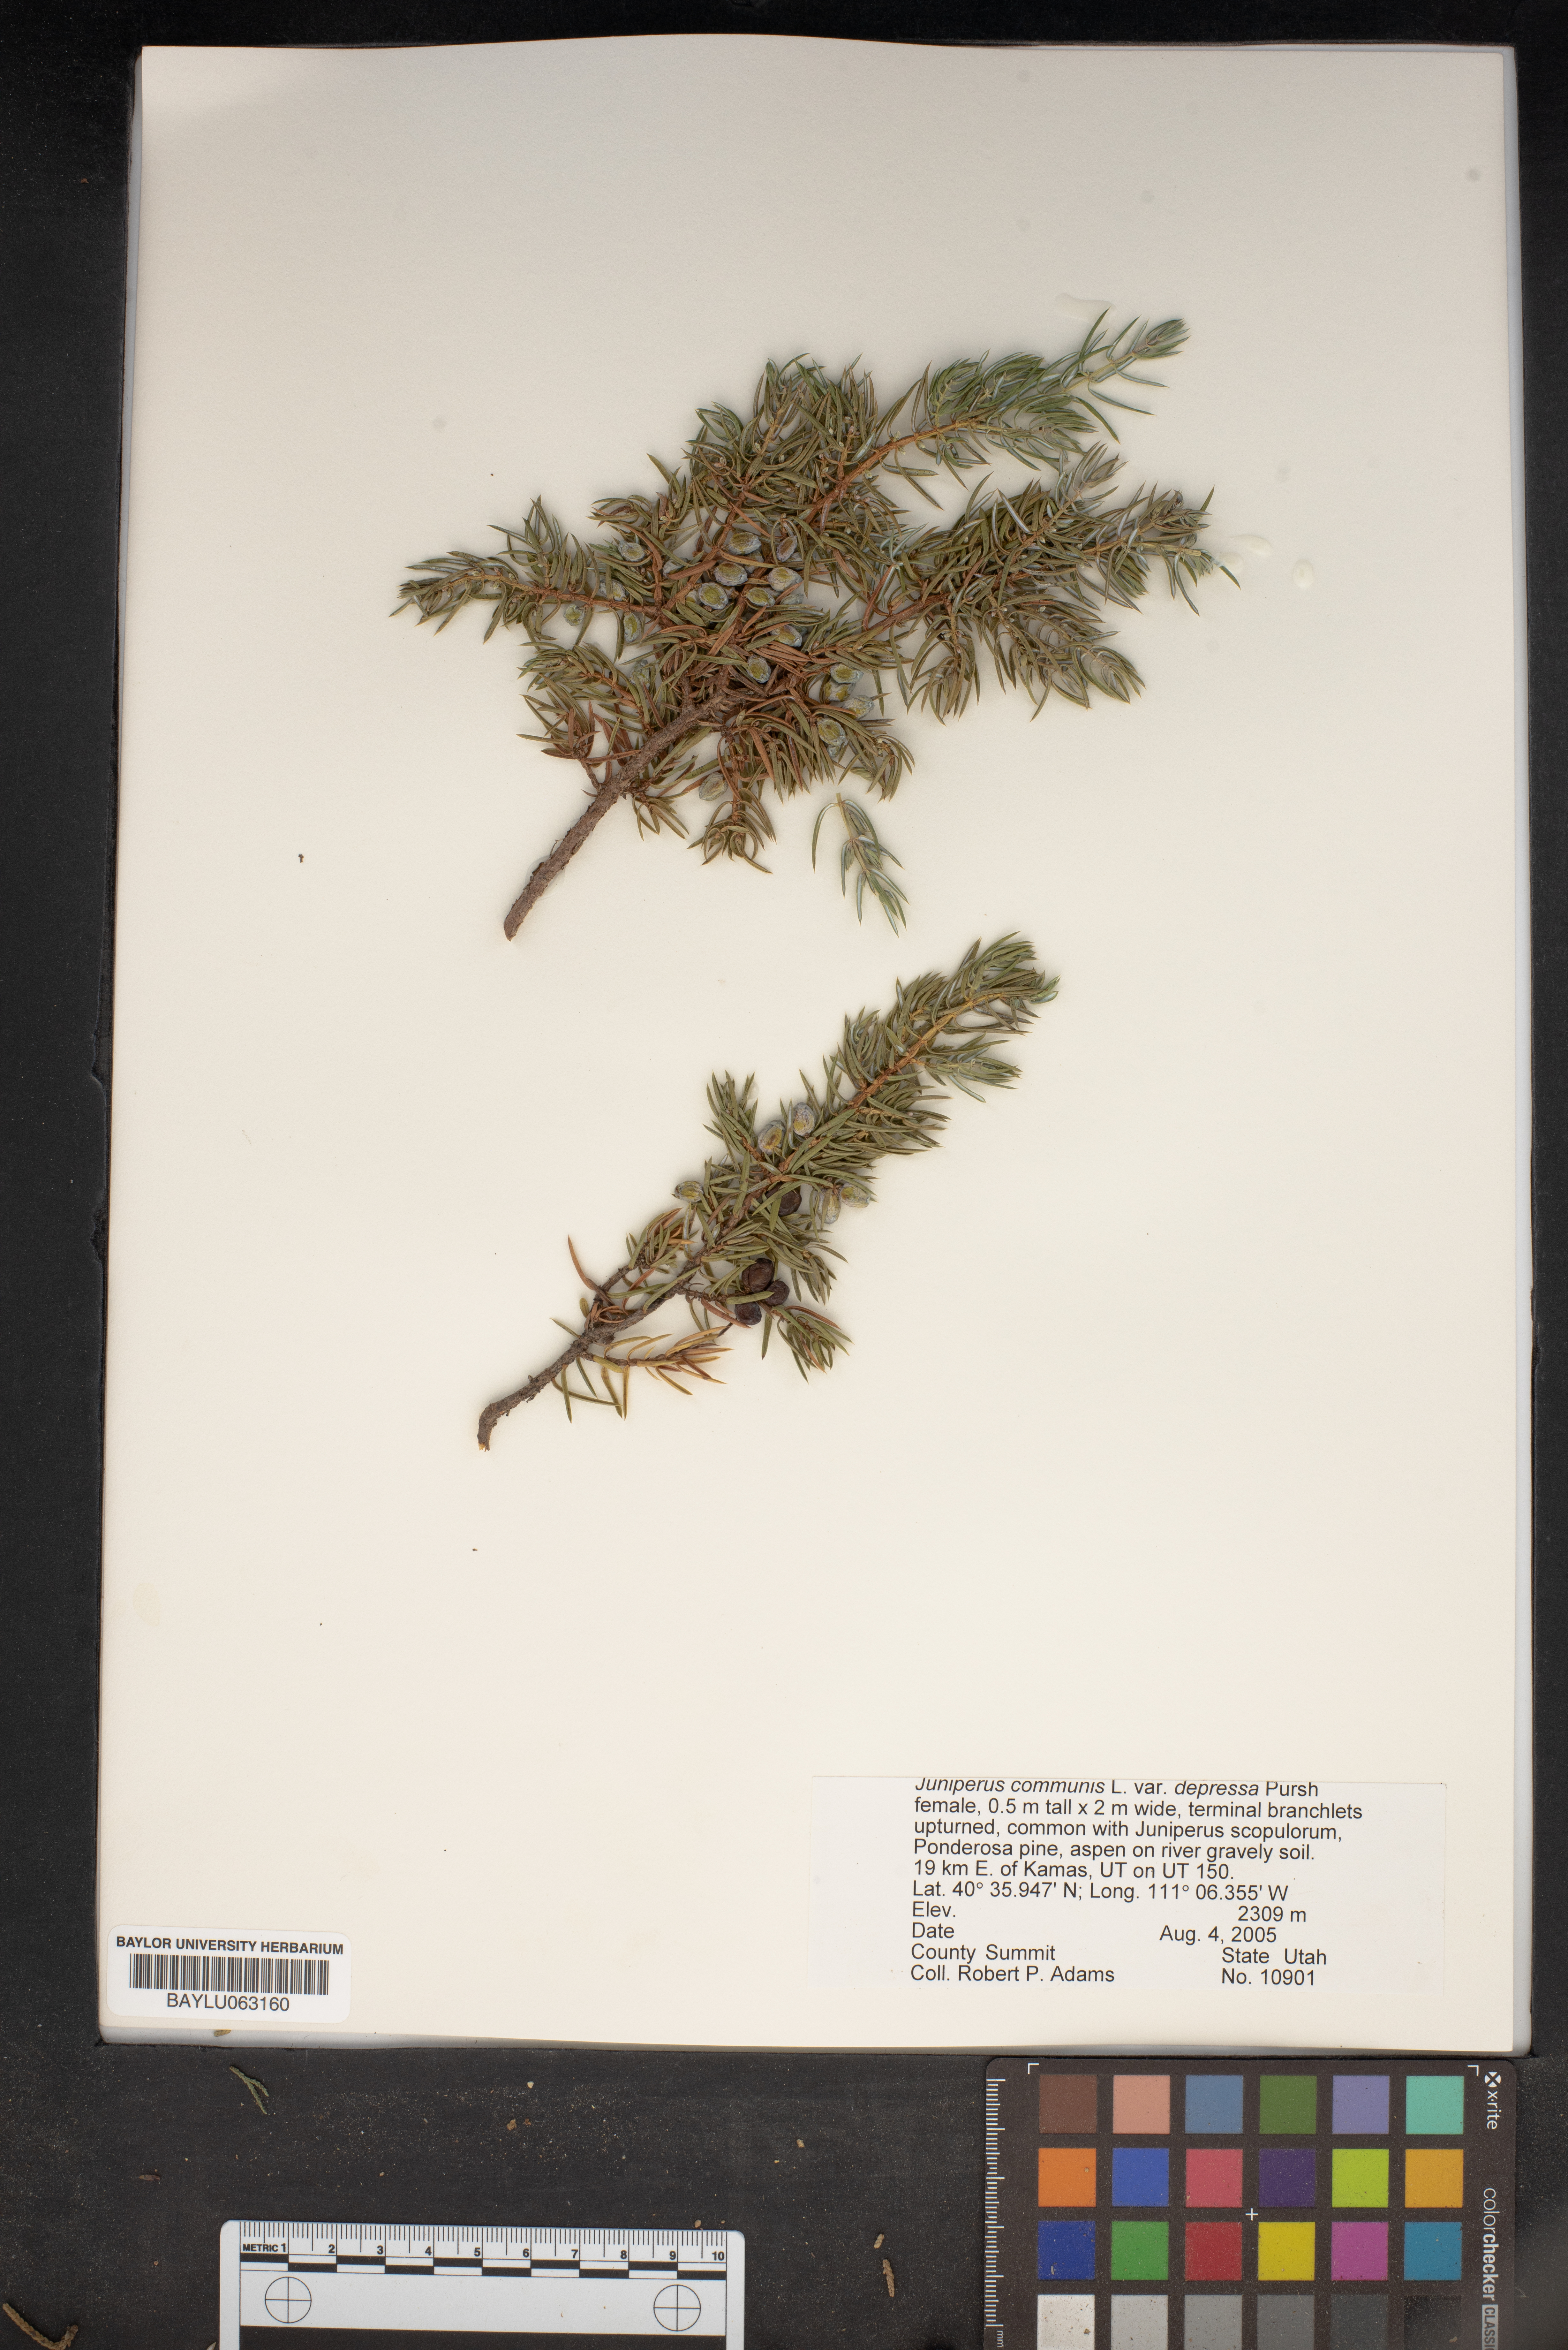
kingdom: Plantae
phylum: Tracheophyta
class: Pinopsida
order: Pinales
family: Cupressaceae
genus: Juniperus
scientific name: Juniperus communis
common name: Common juniper
